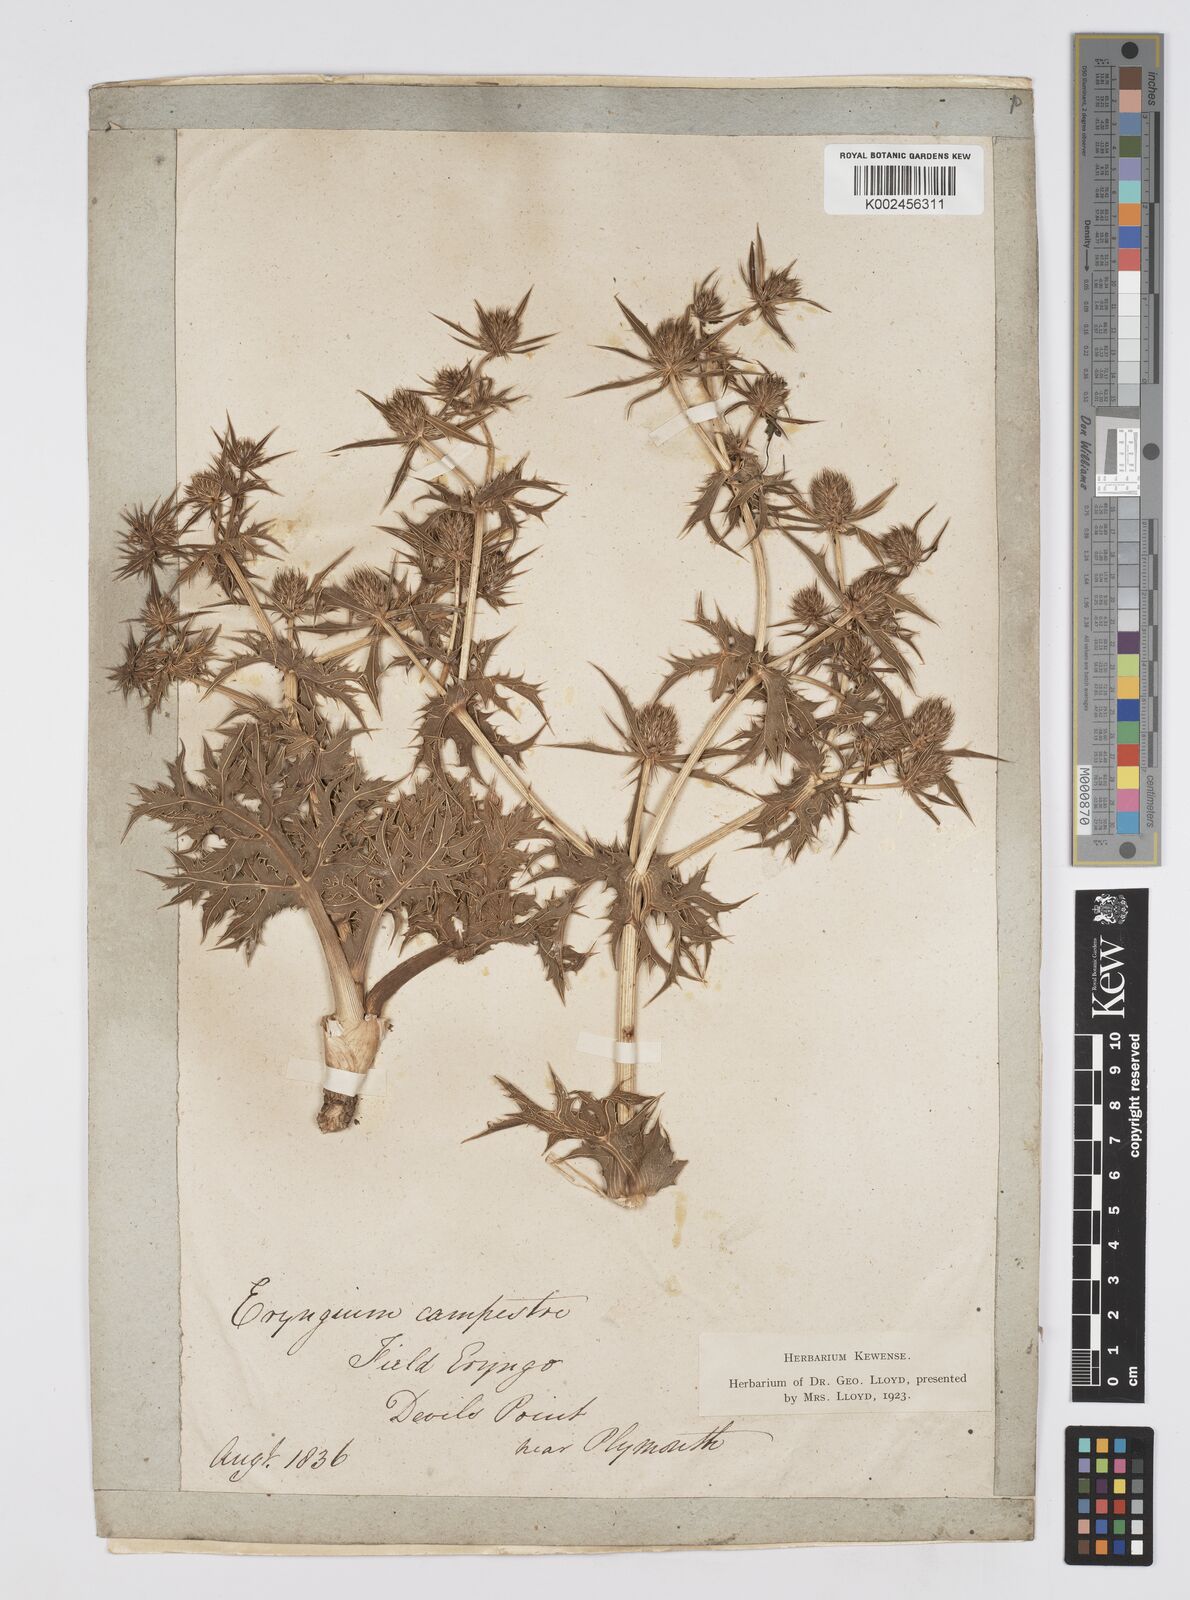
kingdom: Plantae
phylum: Tracheophyta
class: Magnoliopsida
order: Apiales
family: Apiaceae
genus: Eryngium
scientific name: Eryngium campestre
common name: Field eryngo
